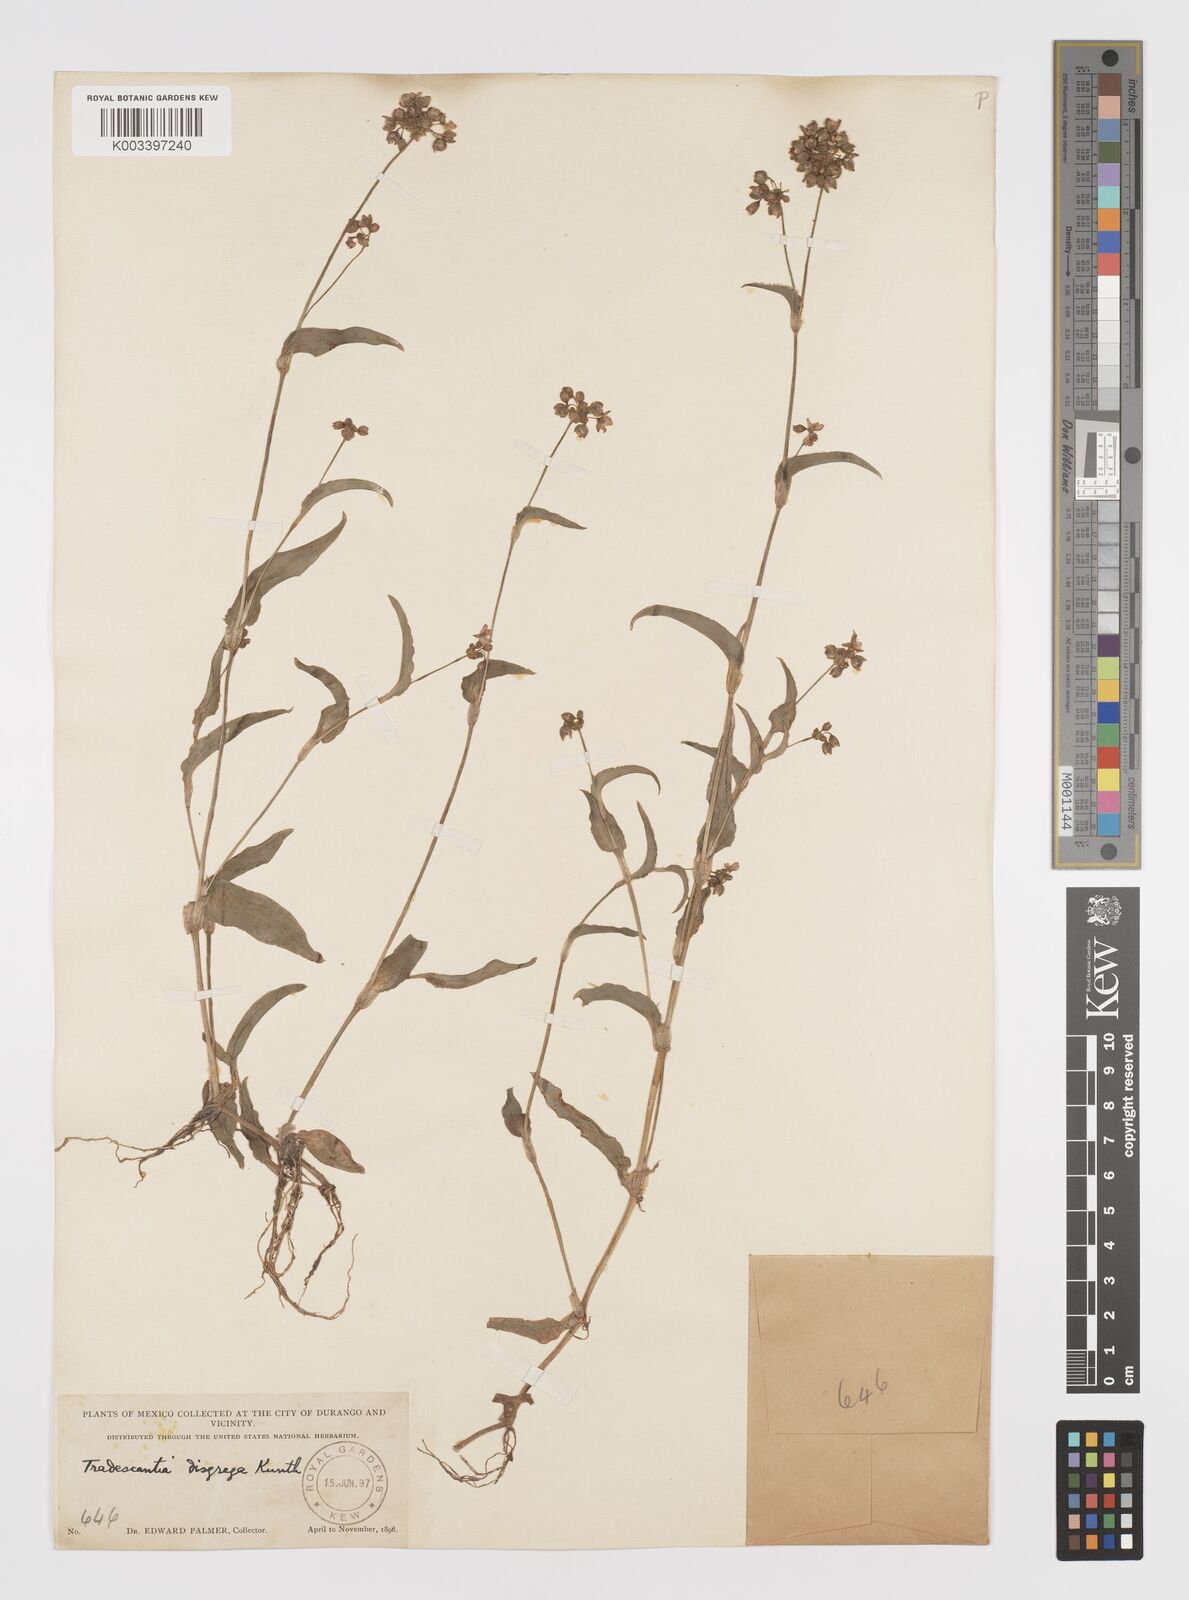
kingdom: Plantae
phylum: Tracheophyta
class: Liliopsida
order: Commelinales
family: Commelinaceae
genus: Callisia
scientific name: Callisia disgrega
